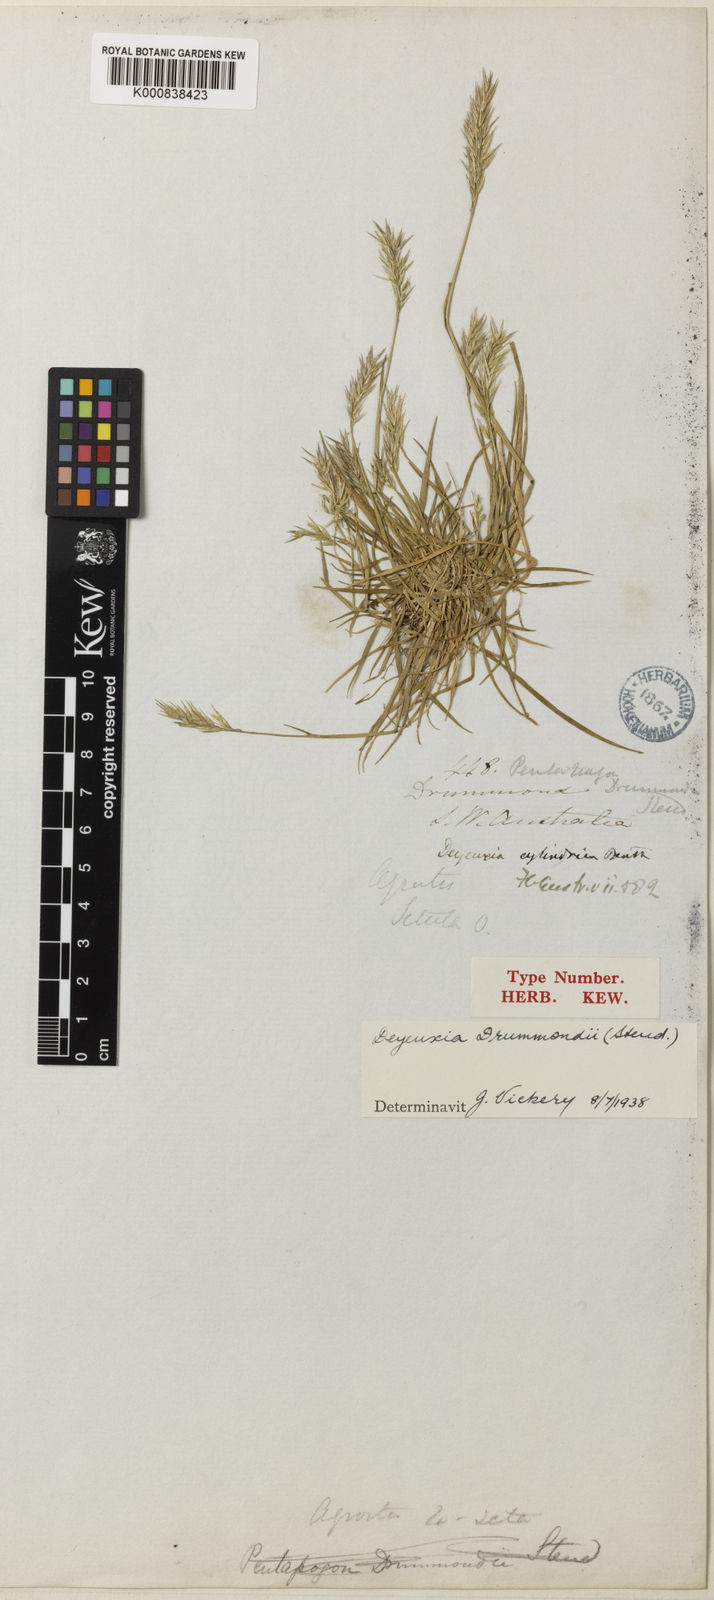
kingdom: Plantae
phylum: Tracheophyta
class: Liliopsida
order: Poales
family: Poaceae
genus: Calamagrostis
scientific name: Calamagrostis drummondii
